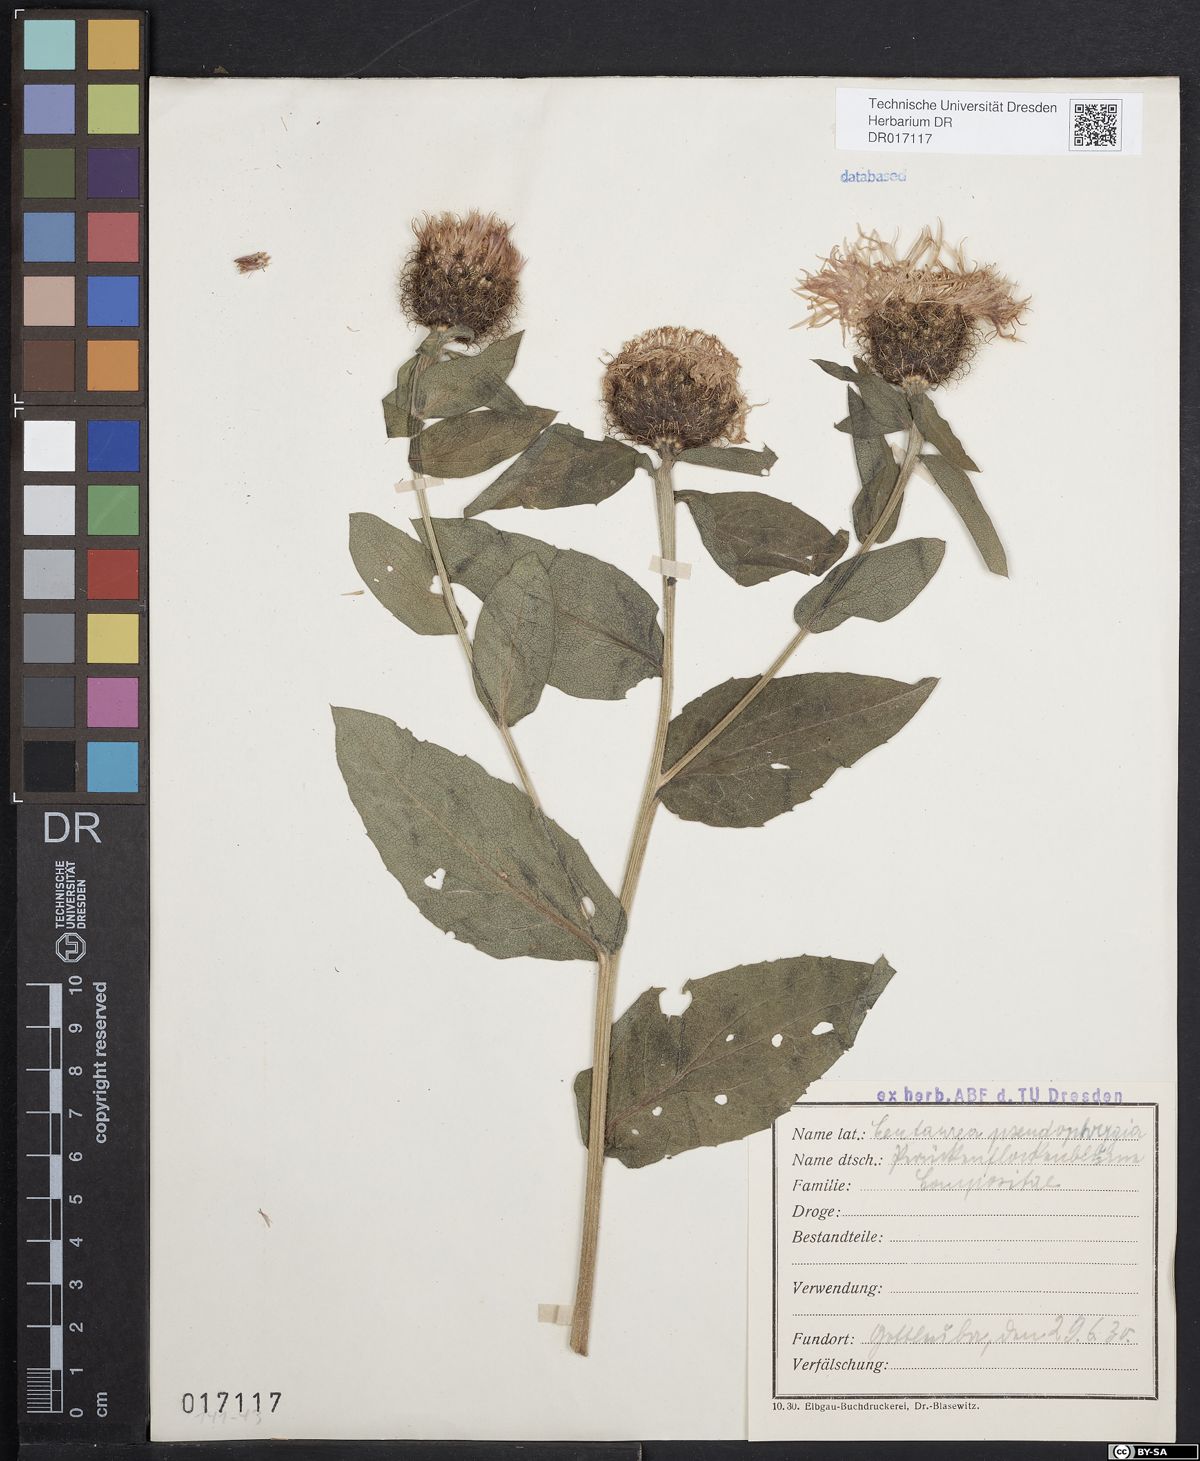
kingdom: Plantae
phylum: Tracheophyta
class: Magnoliopsida
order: Asterales
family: Asteraceae
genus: Centaurea
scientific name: Centaurea pseudophrygia
